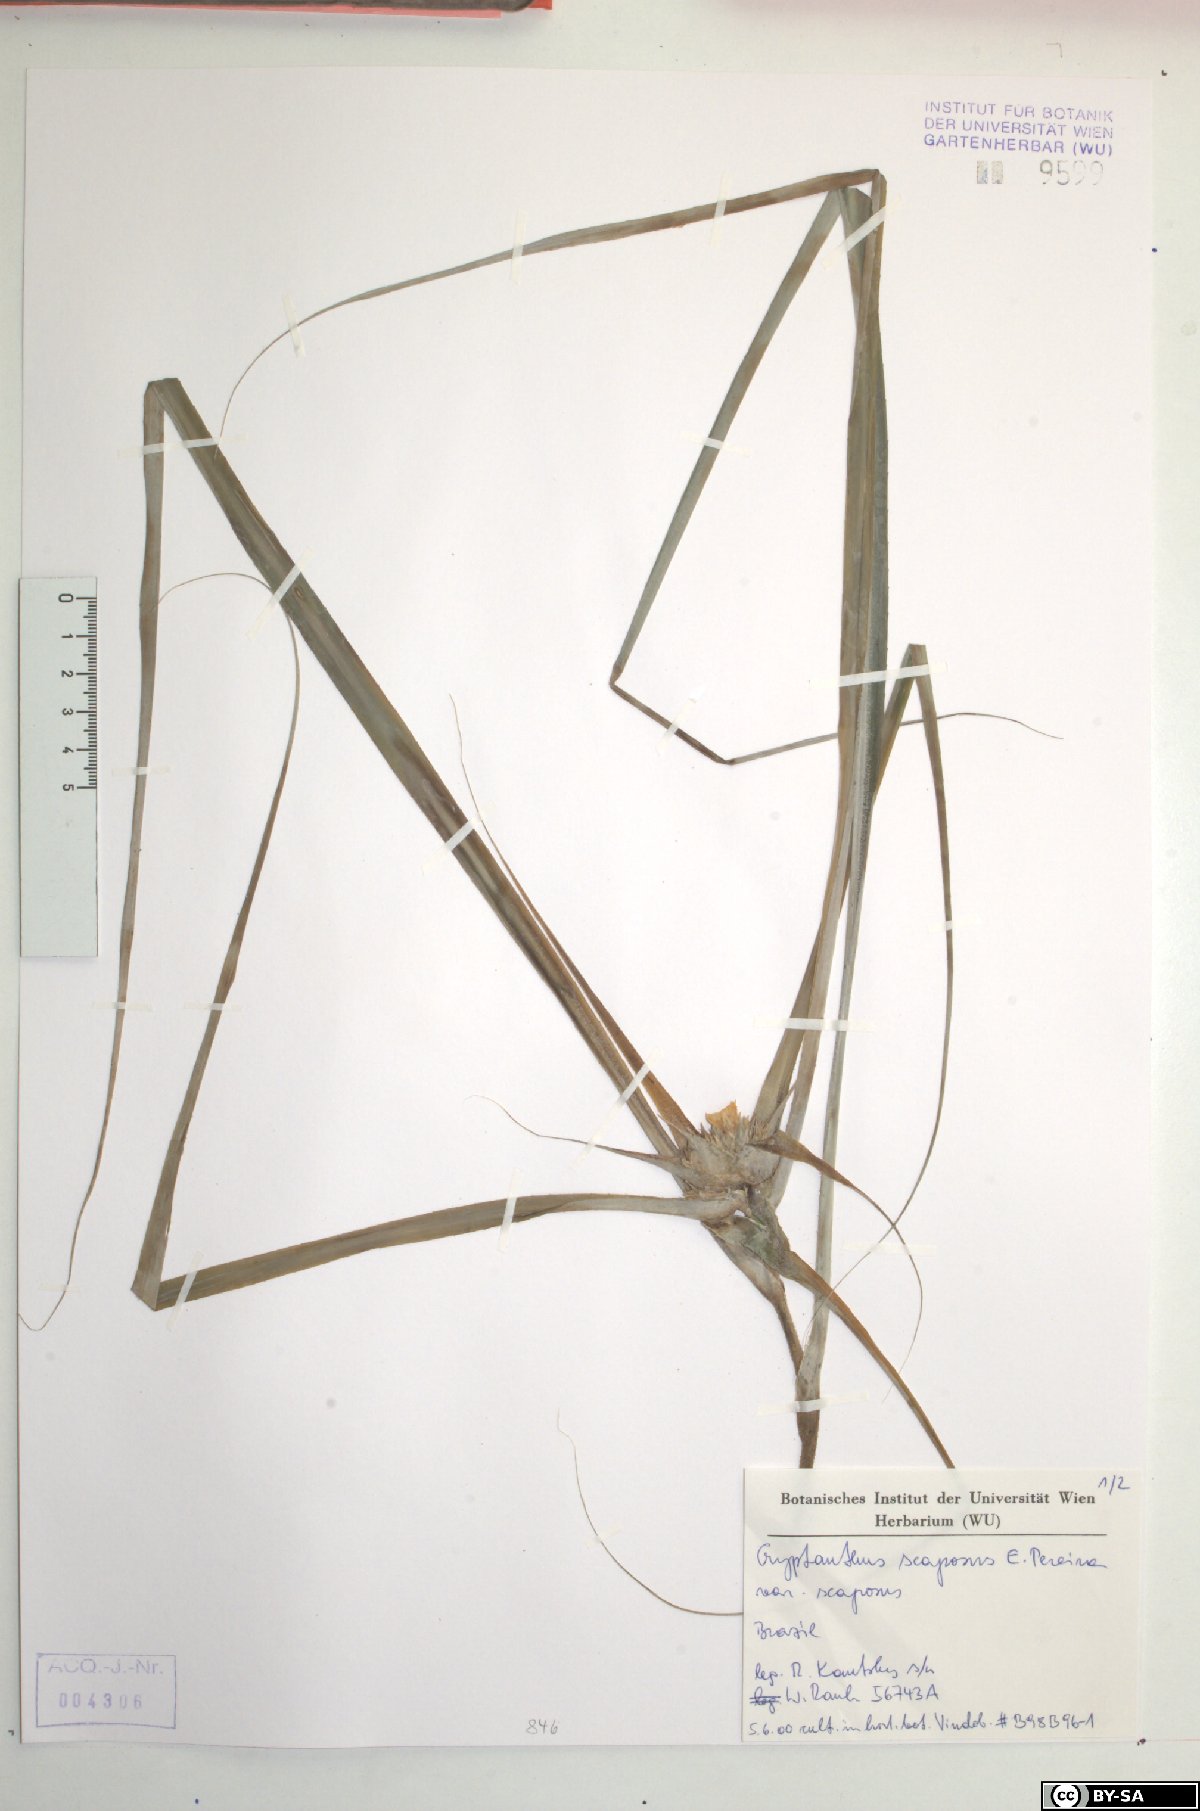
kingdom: Plantae
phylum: Tracheophyta
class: Liliopsida
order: Poales
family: Bromeliaceae
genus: Rokautskyia
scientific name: Rokautskyia scaposa
